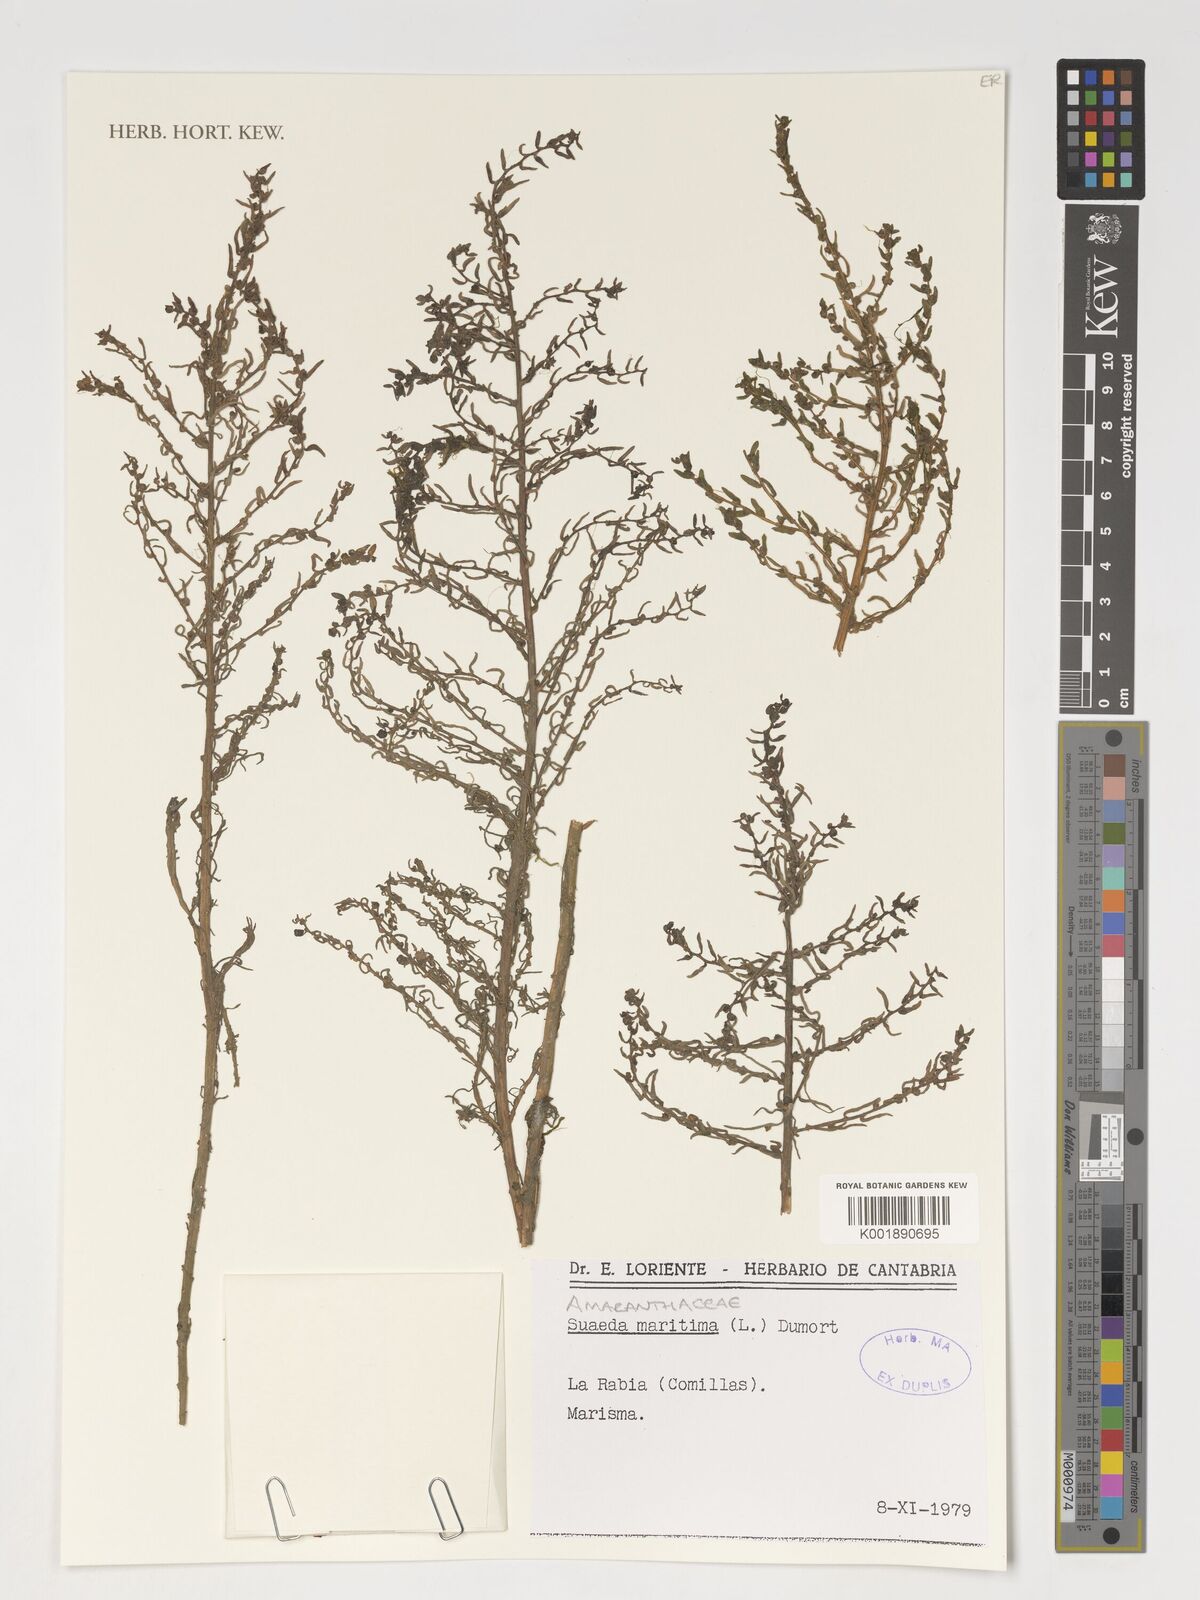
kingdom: Plantae
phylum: Tracheophyta
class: Magnoliopsida
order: Caryophyllales
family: Amaranthaceae
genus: Suaeda
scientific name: Suaeda maritima
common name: Annual sea-blite
